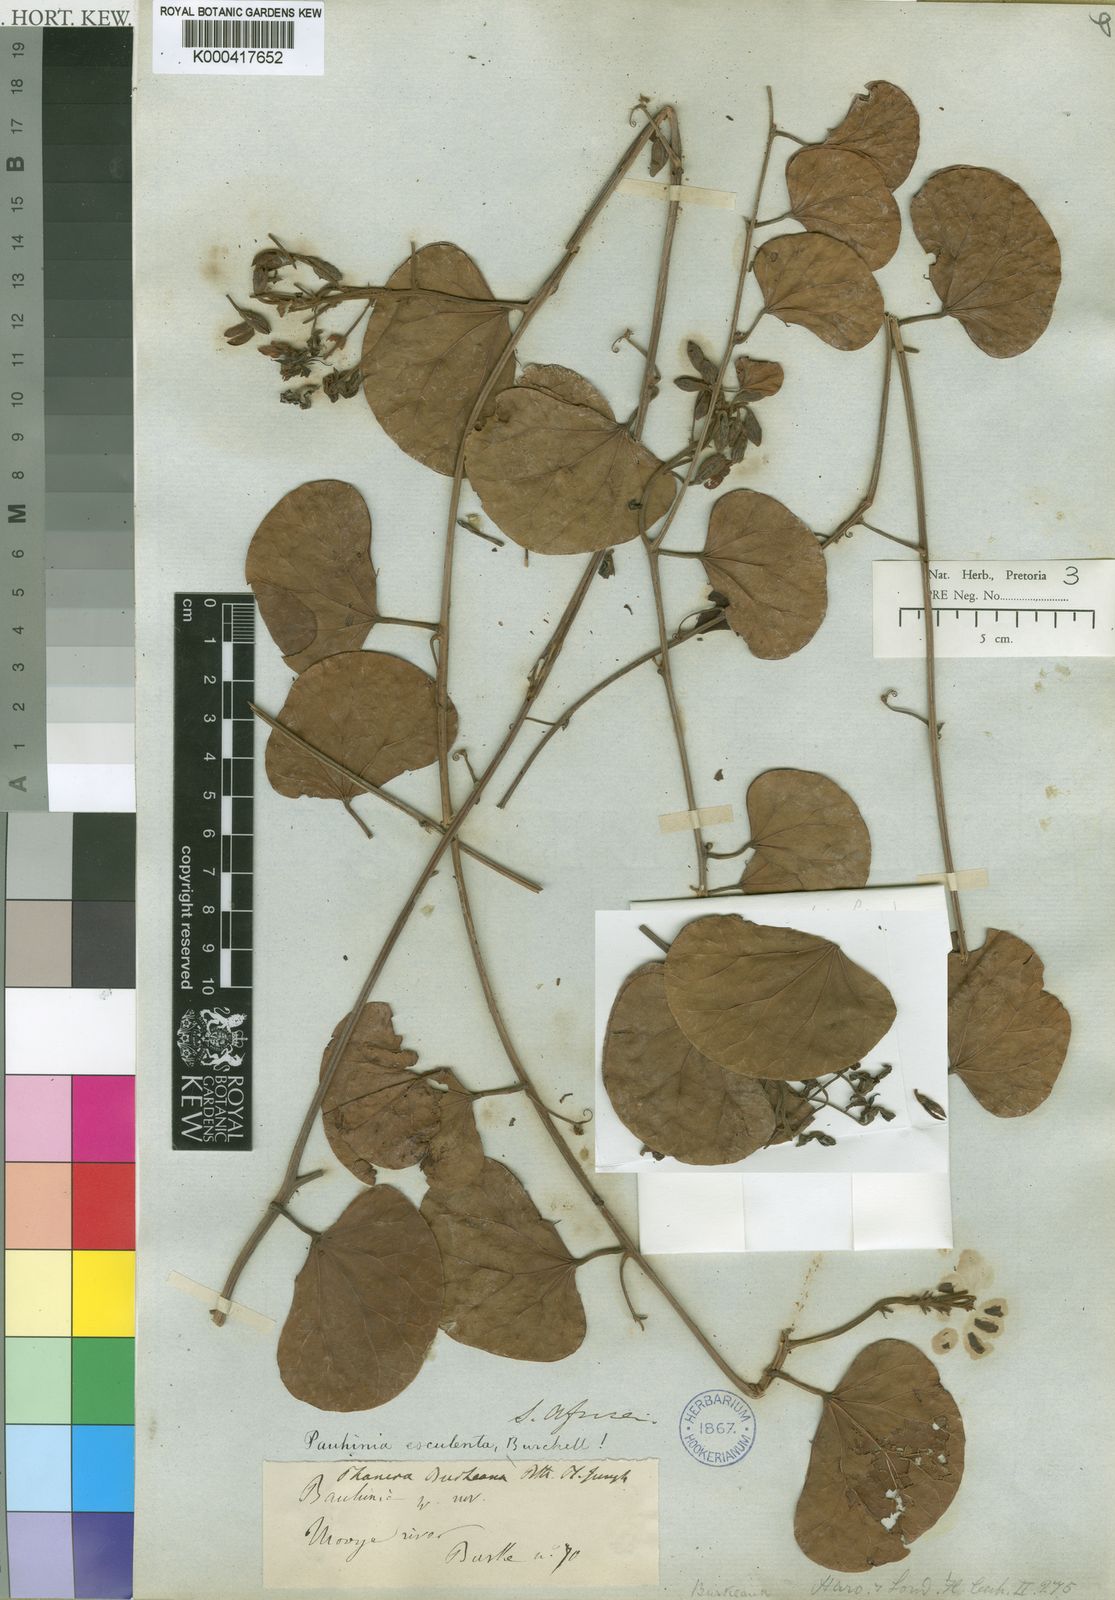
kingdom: Plantae
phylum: Tracheophyta
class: Magnoliopsida
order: Fabales
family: Fabaceae
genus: Tylosema
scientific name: Tylosema esculentum
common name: Marama-bean
